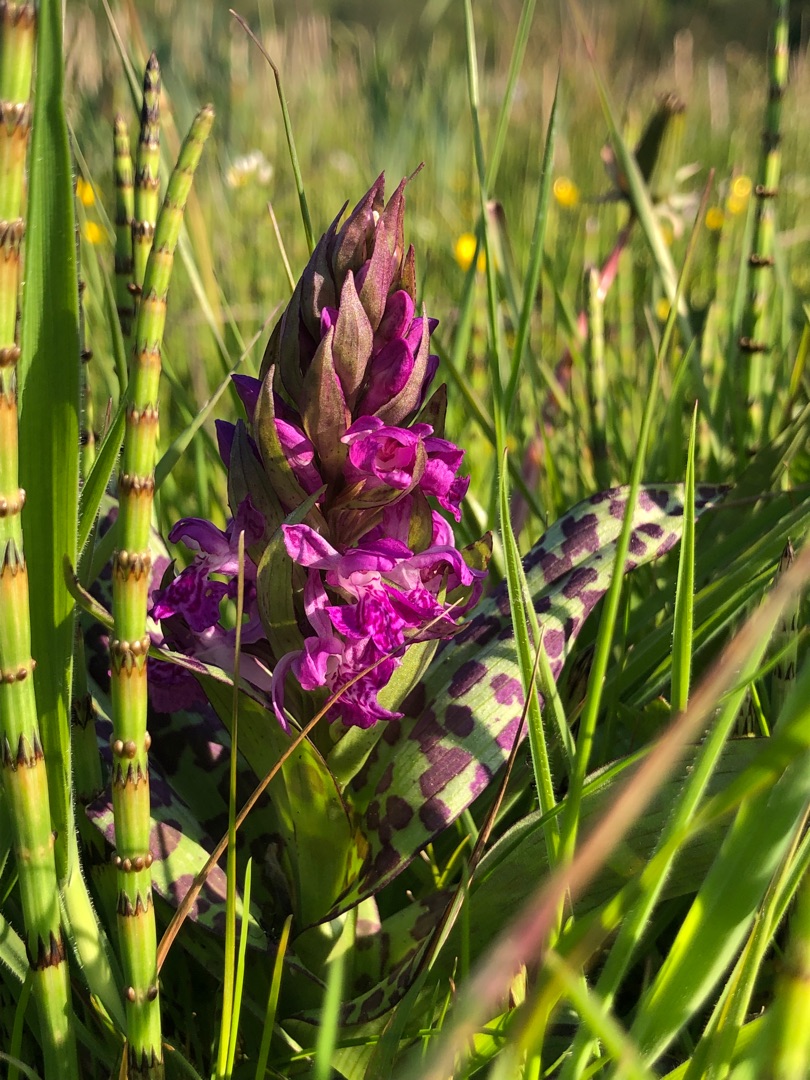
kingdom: Plantae
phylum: Tracheophyta
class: Liliopsida
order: Asparagales
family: Orchidaceae
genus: Dactylorhiza
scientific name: Dactylorhiza majalis
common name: Maj-gøgeurt
